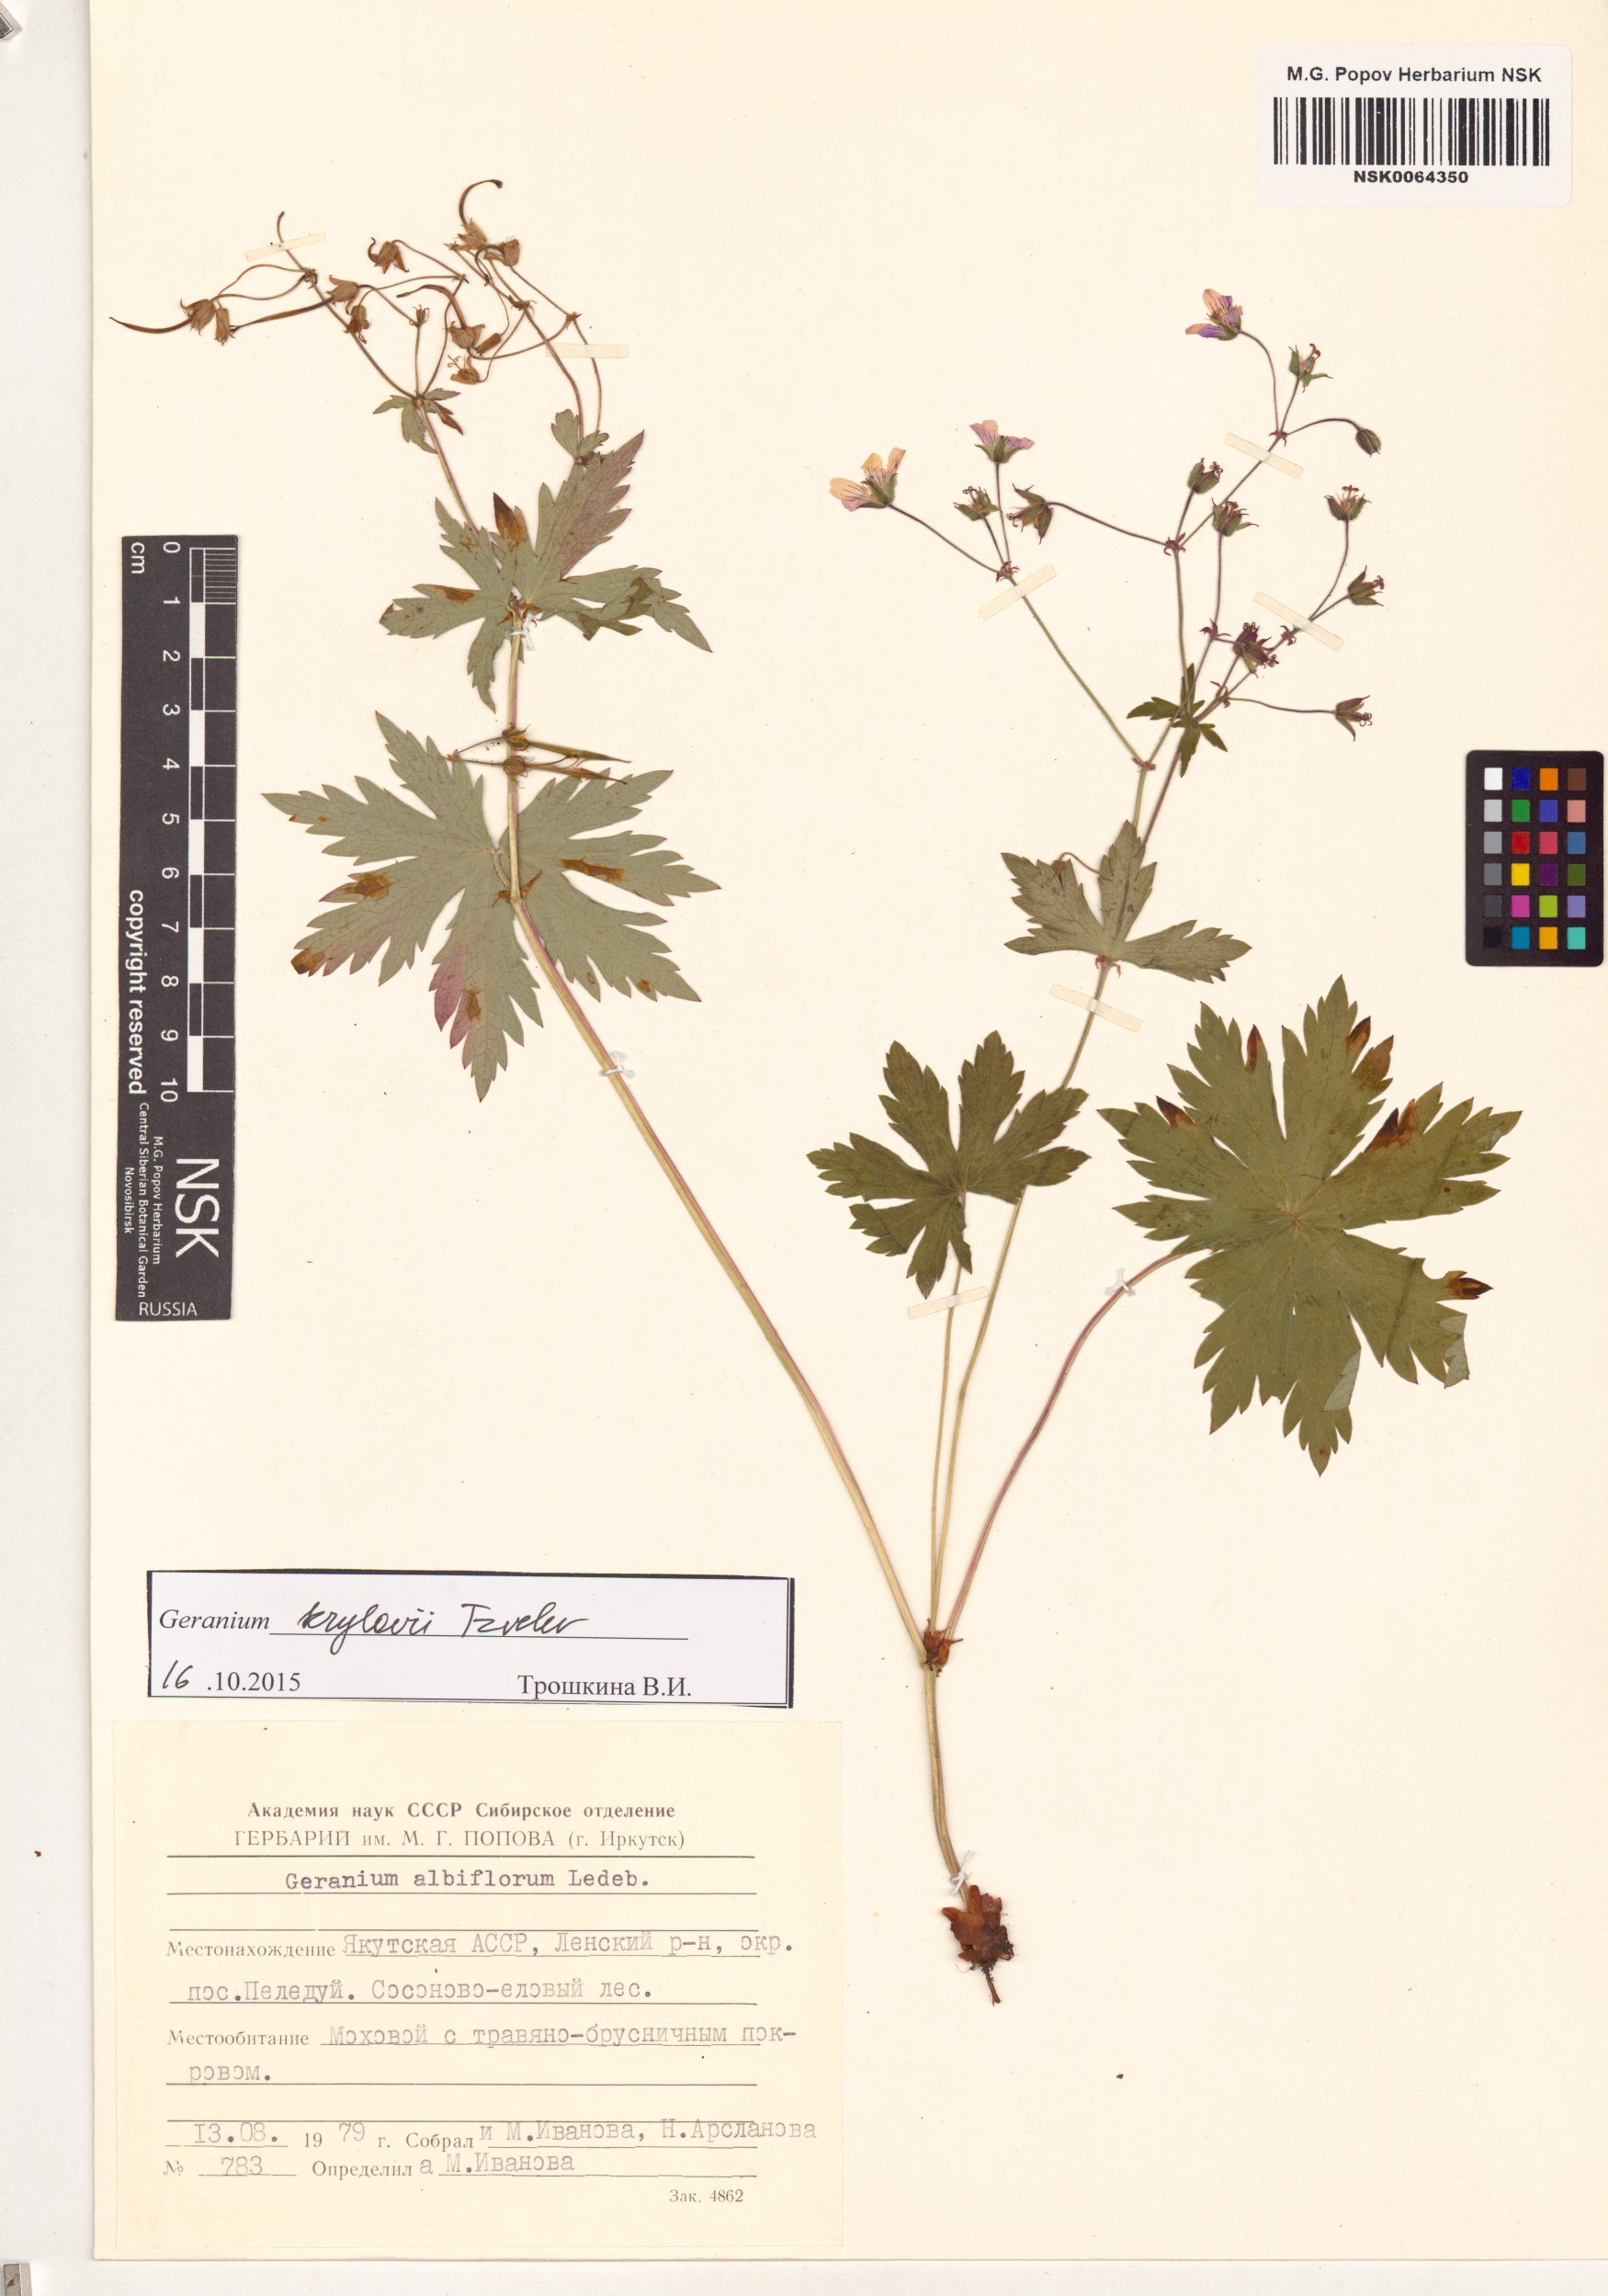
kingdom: Plantae
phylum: Tracheophyta
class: Magnoliopsida
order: Geraniales
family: Geraniaceae
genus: Geranium
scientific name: Geranium sylvaticum
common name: Wood crane's-bill
